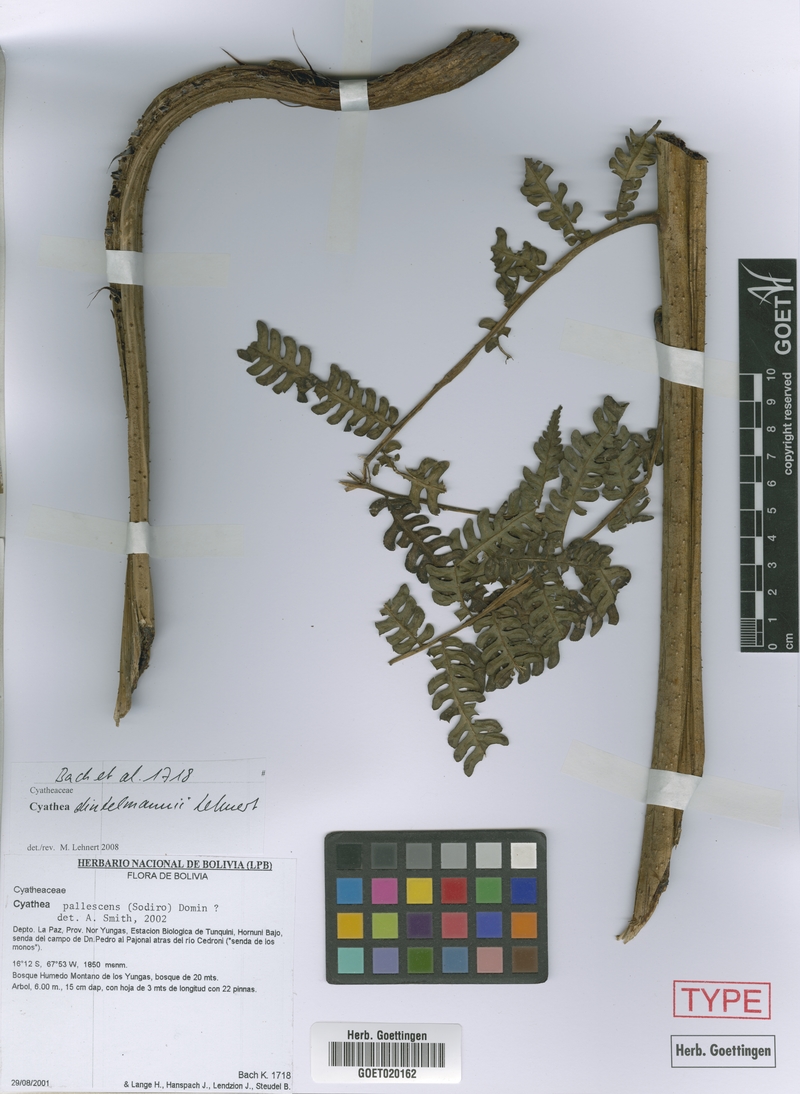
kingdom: Plantae
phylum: Tracheophyta
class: Polypodiopsida
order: Cyatheales
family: Cyatheaceae
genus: Cyathea
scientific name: Cyathea dintelmannii
